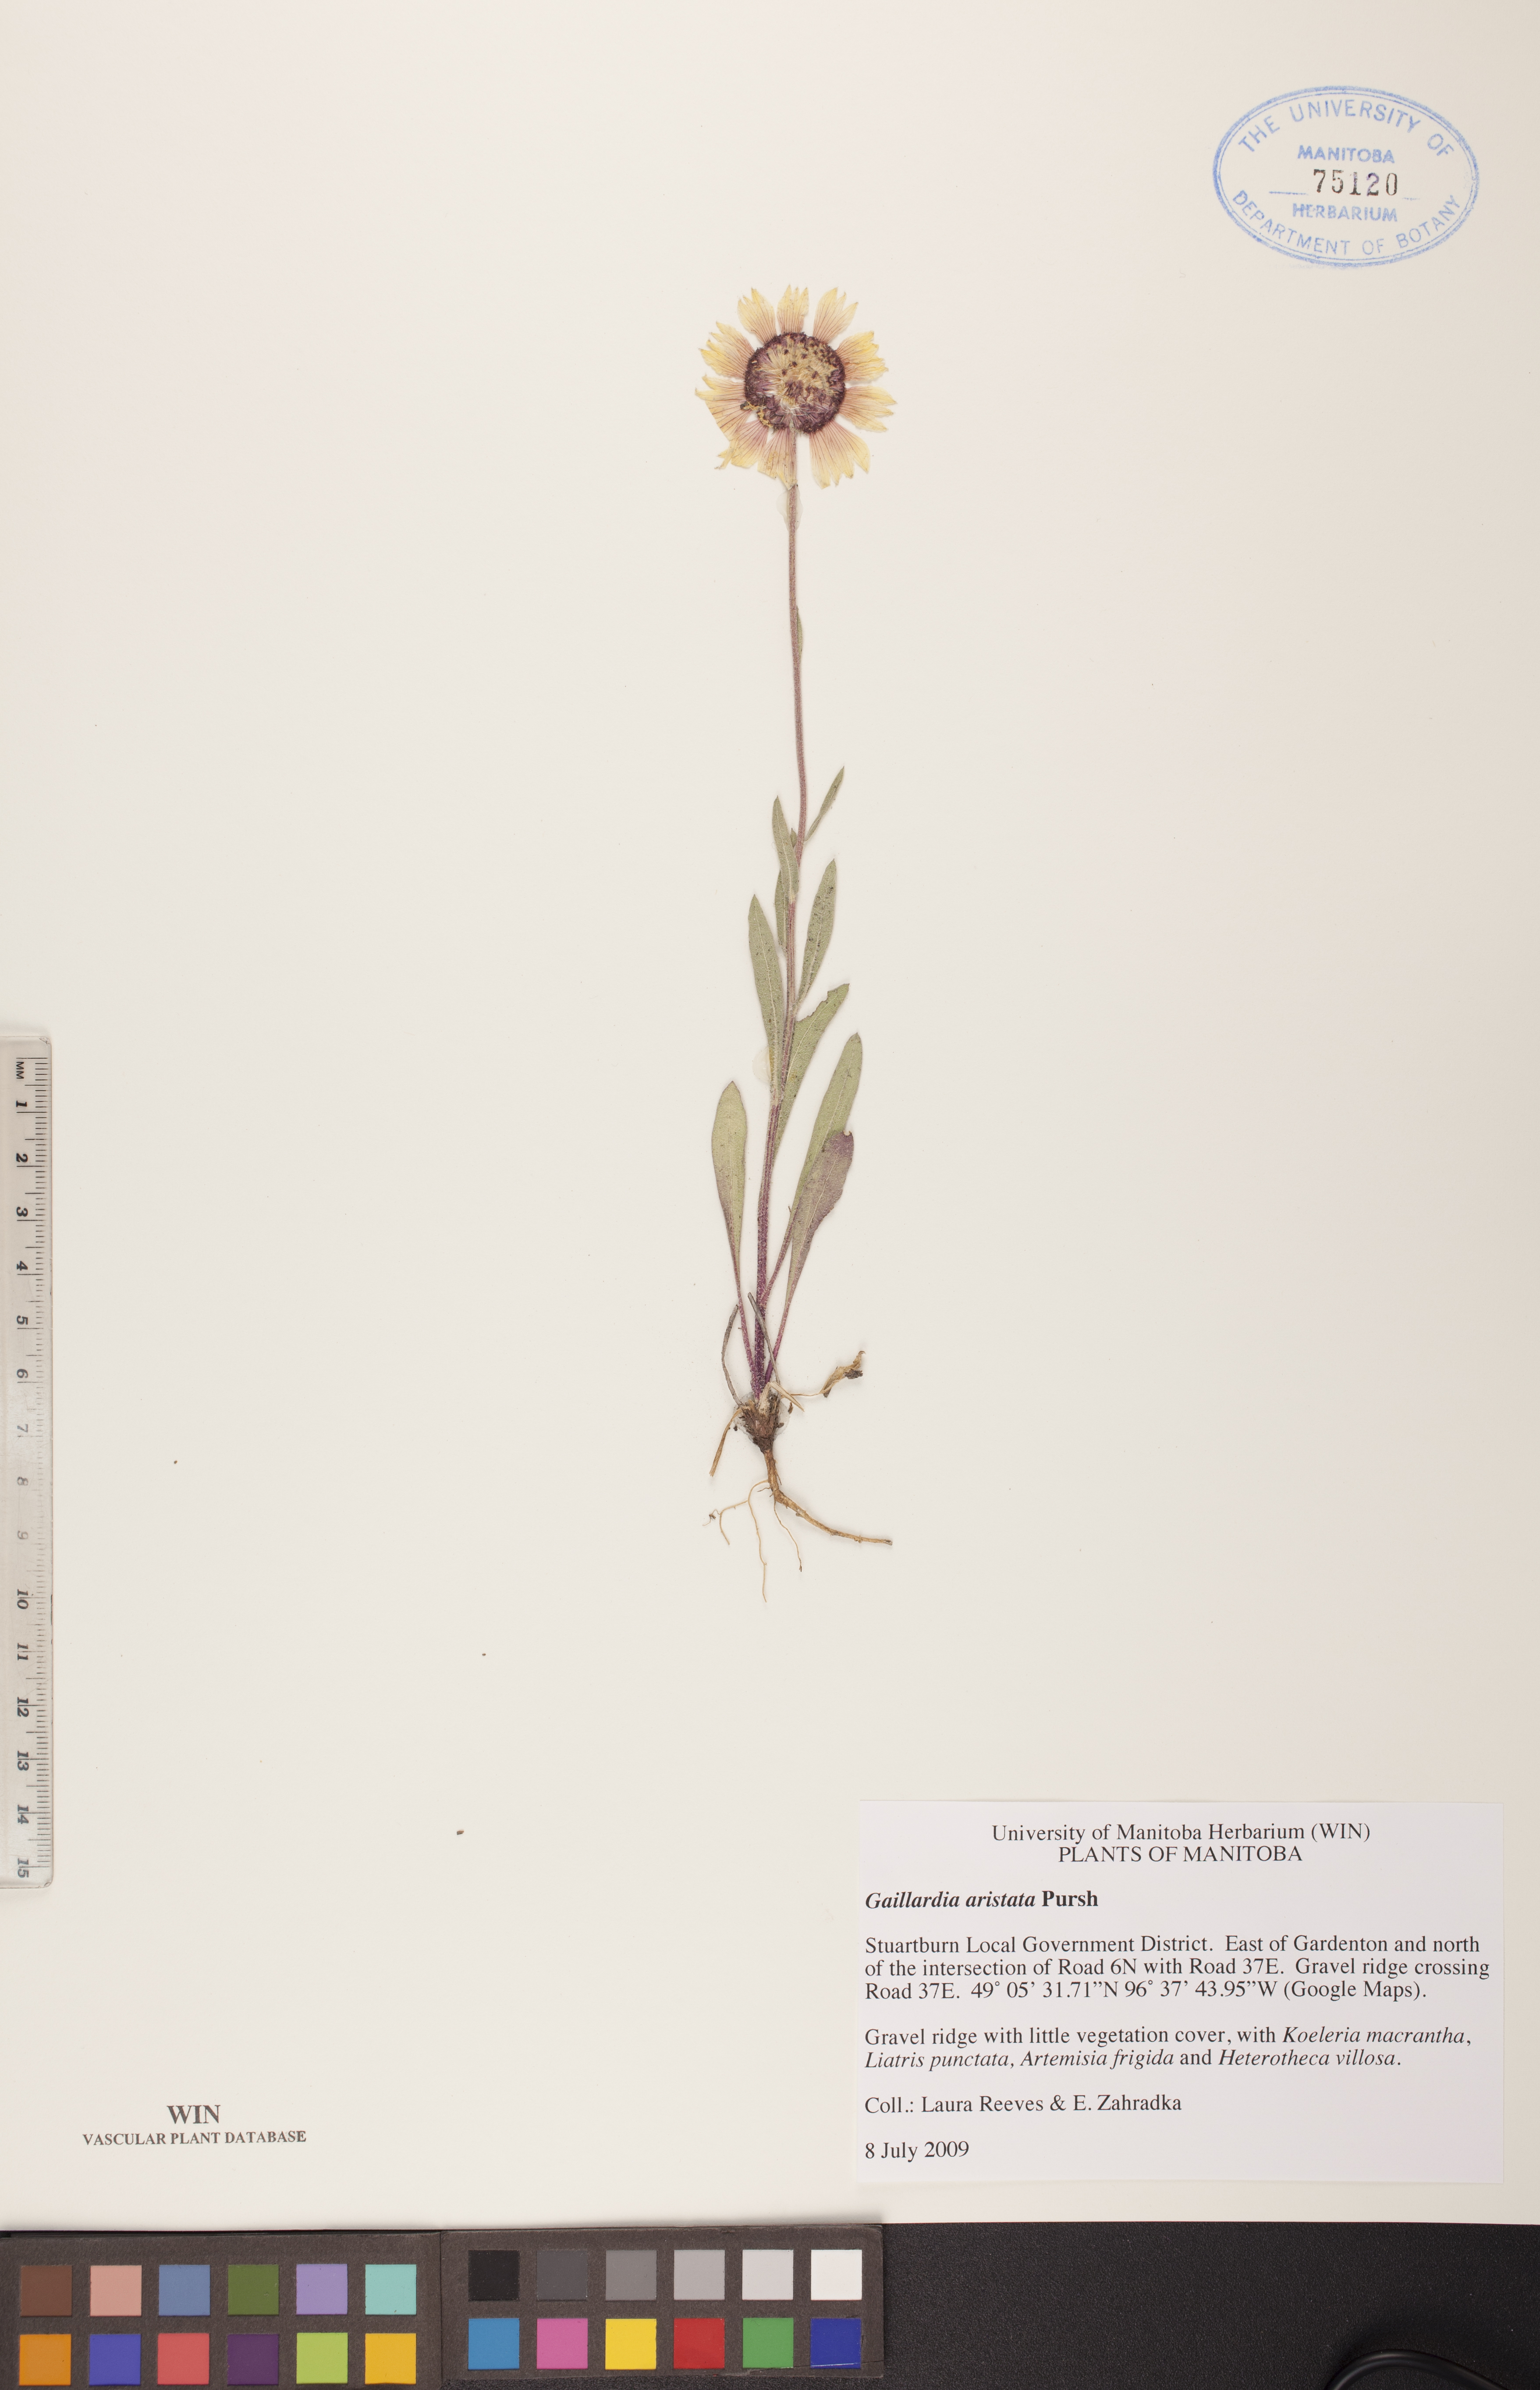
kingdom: Plantae
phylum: Tracheophyta
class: Magnoliopsida
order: Asterales
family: Asteraceae
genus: Gaillardia
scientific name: Gaillardia aristata
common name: Blanket-flower
